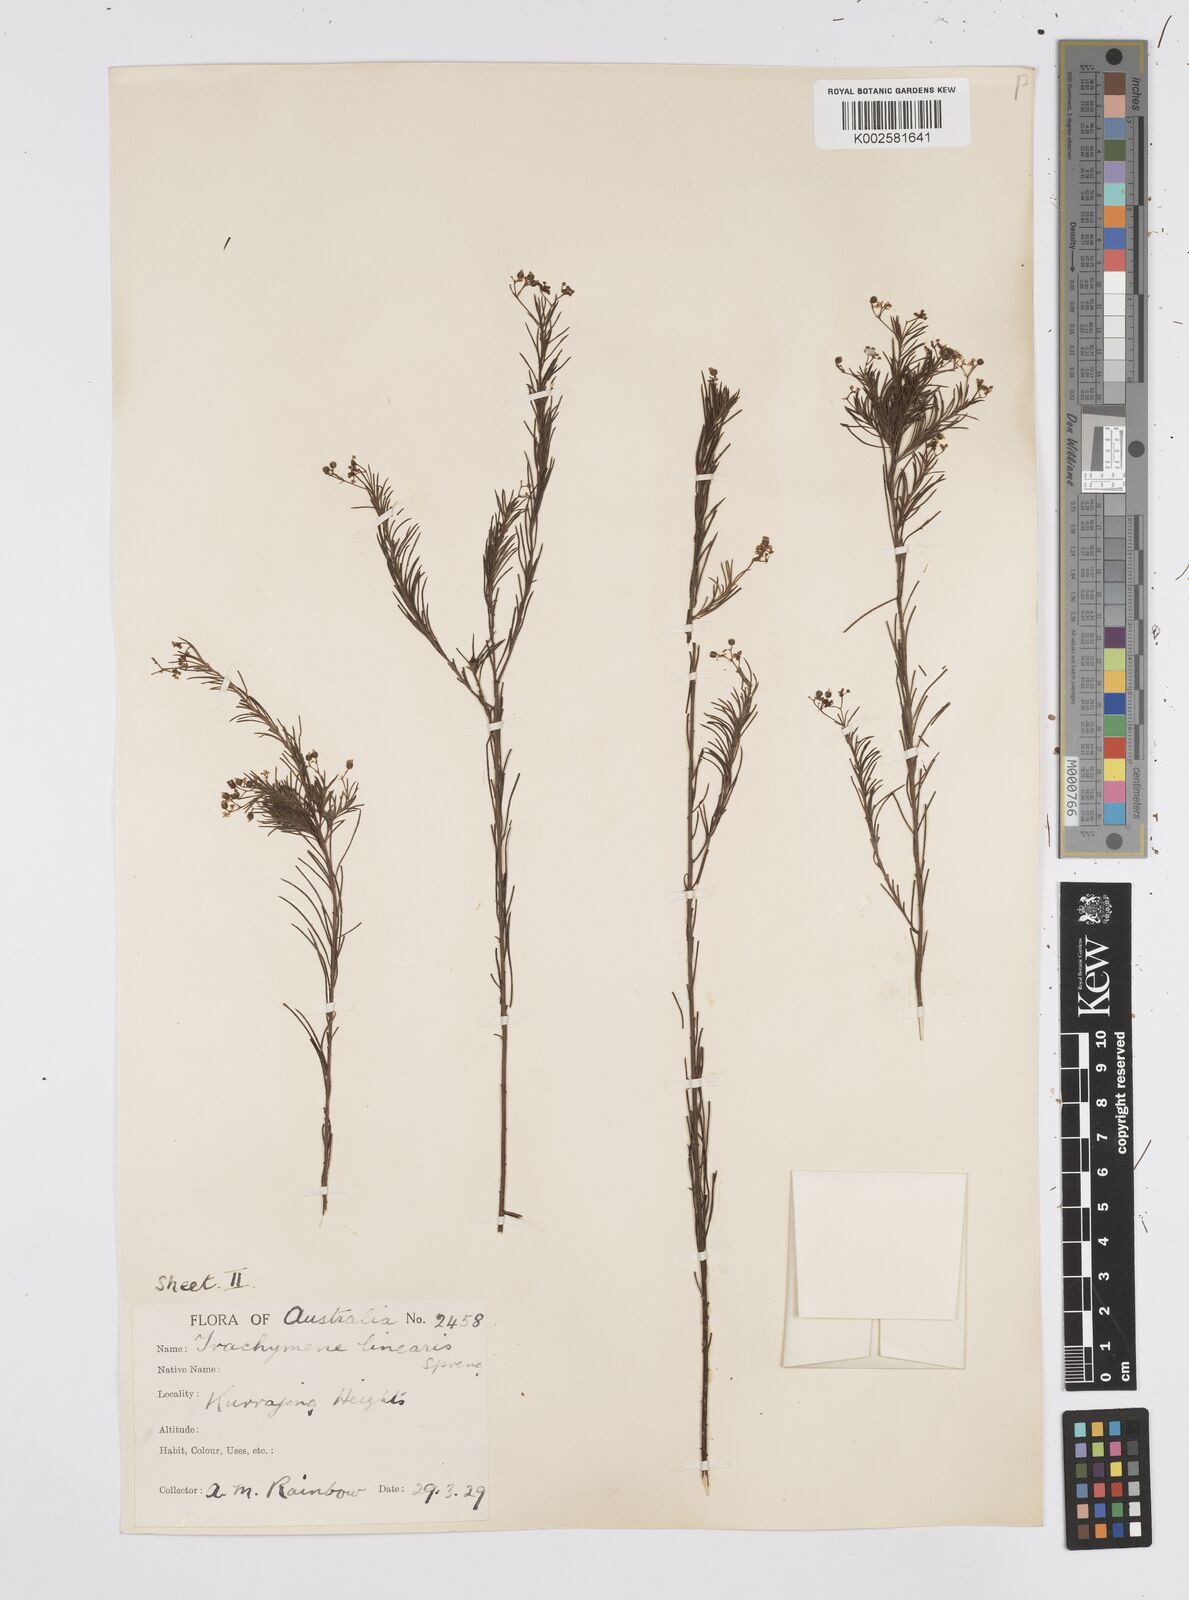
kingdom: Plantae
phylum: Tracheophyta
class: Magnoliopsida
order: Apiales
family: Apiaceae
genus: Platysace
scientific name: Platysace linearifolia
